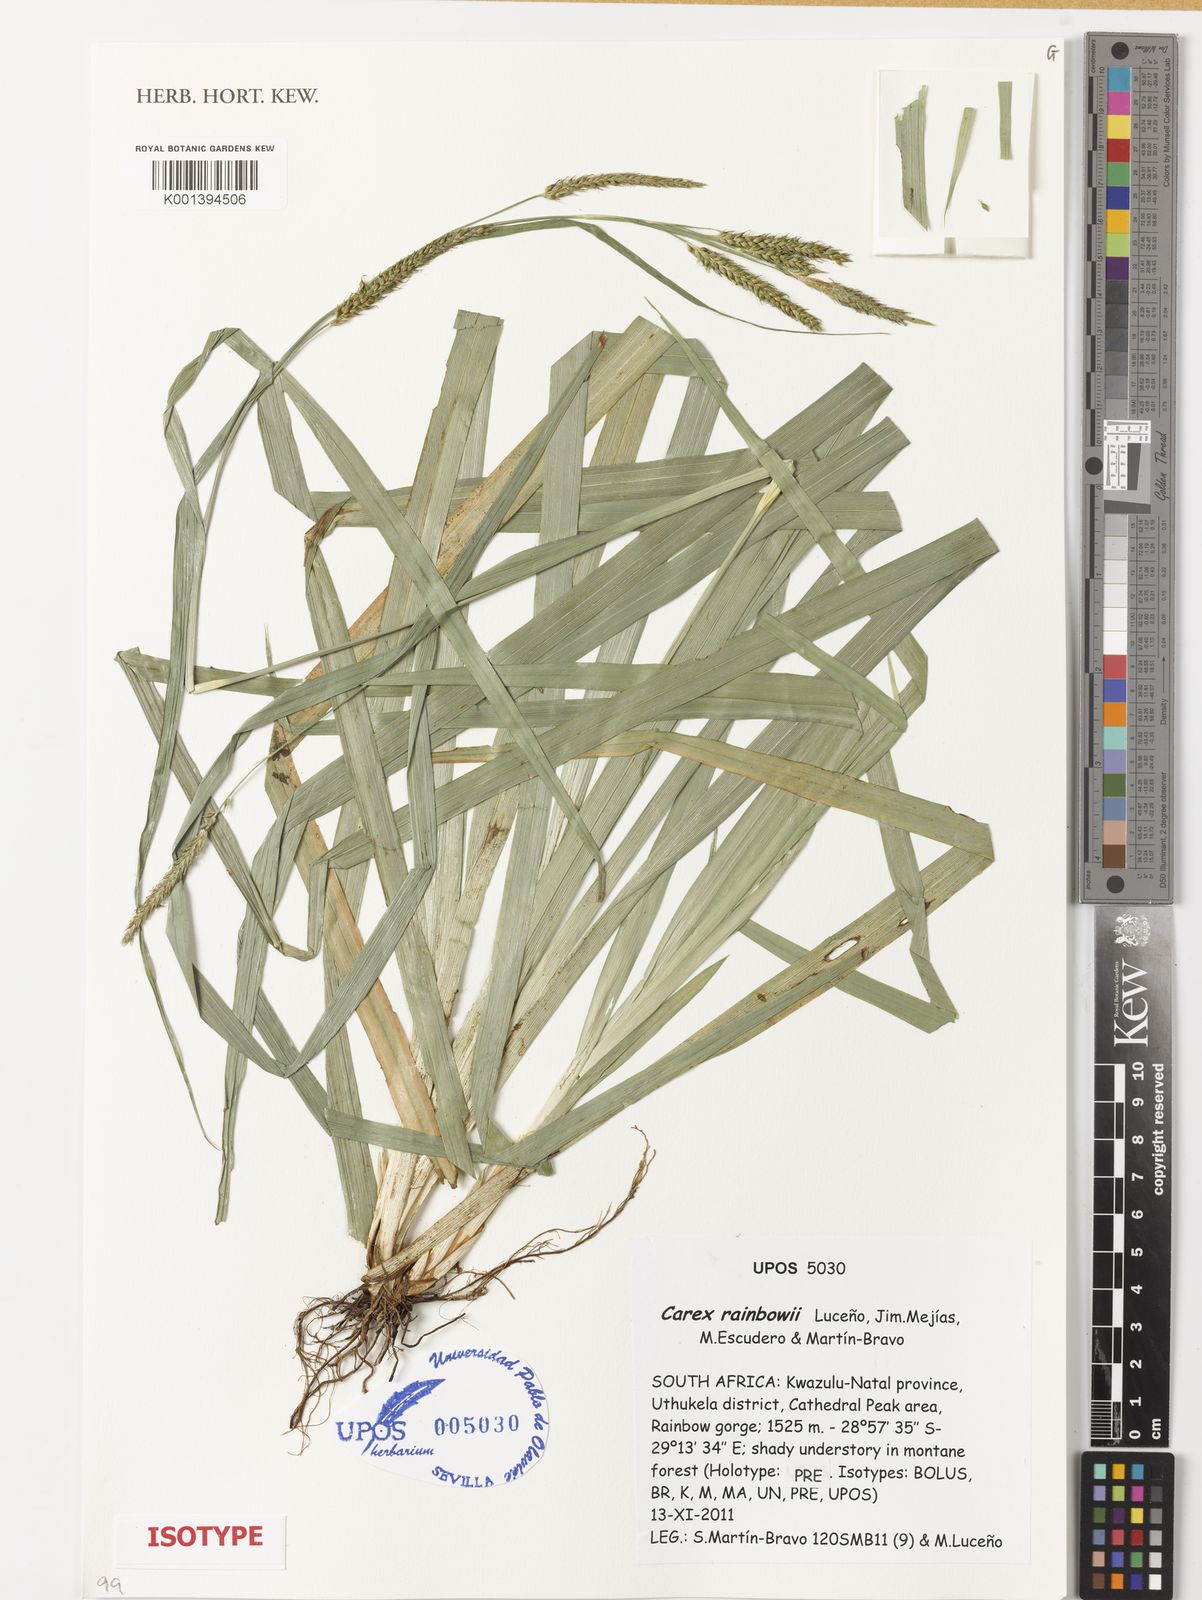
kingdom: Plantae
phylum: Tracheophyta
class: Liliopsida
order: Poales
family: Cyperaceae
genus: Carex
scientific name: Carex
